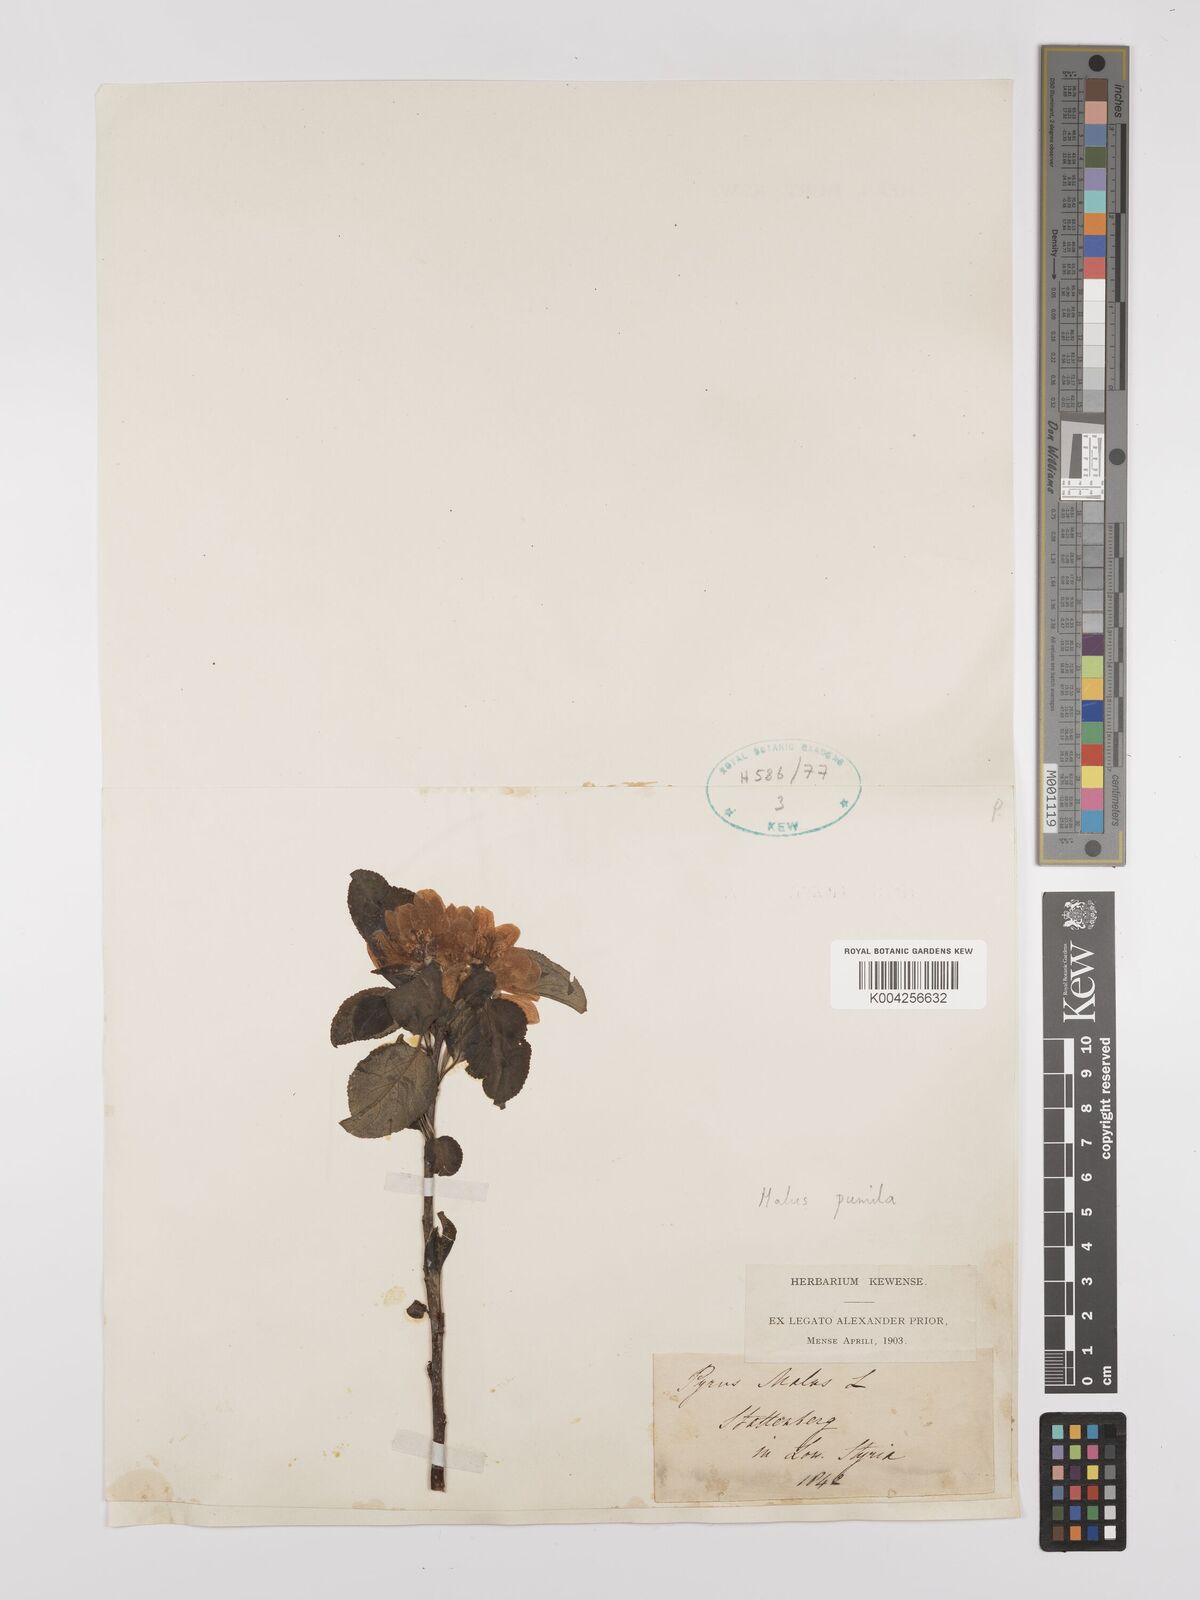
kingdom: Plantae
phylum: Tracheophyta
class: Magnoliopsida
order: Rosales
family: Rosaceae
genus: Malus
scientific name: Malus domestica
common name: Apple
